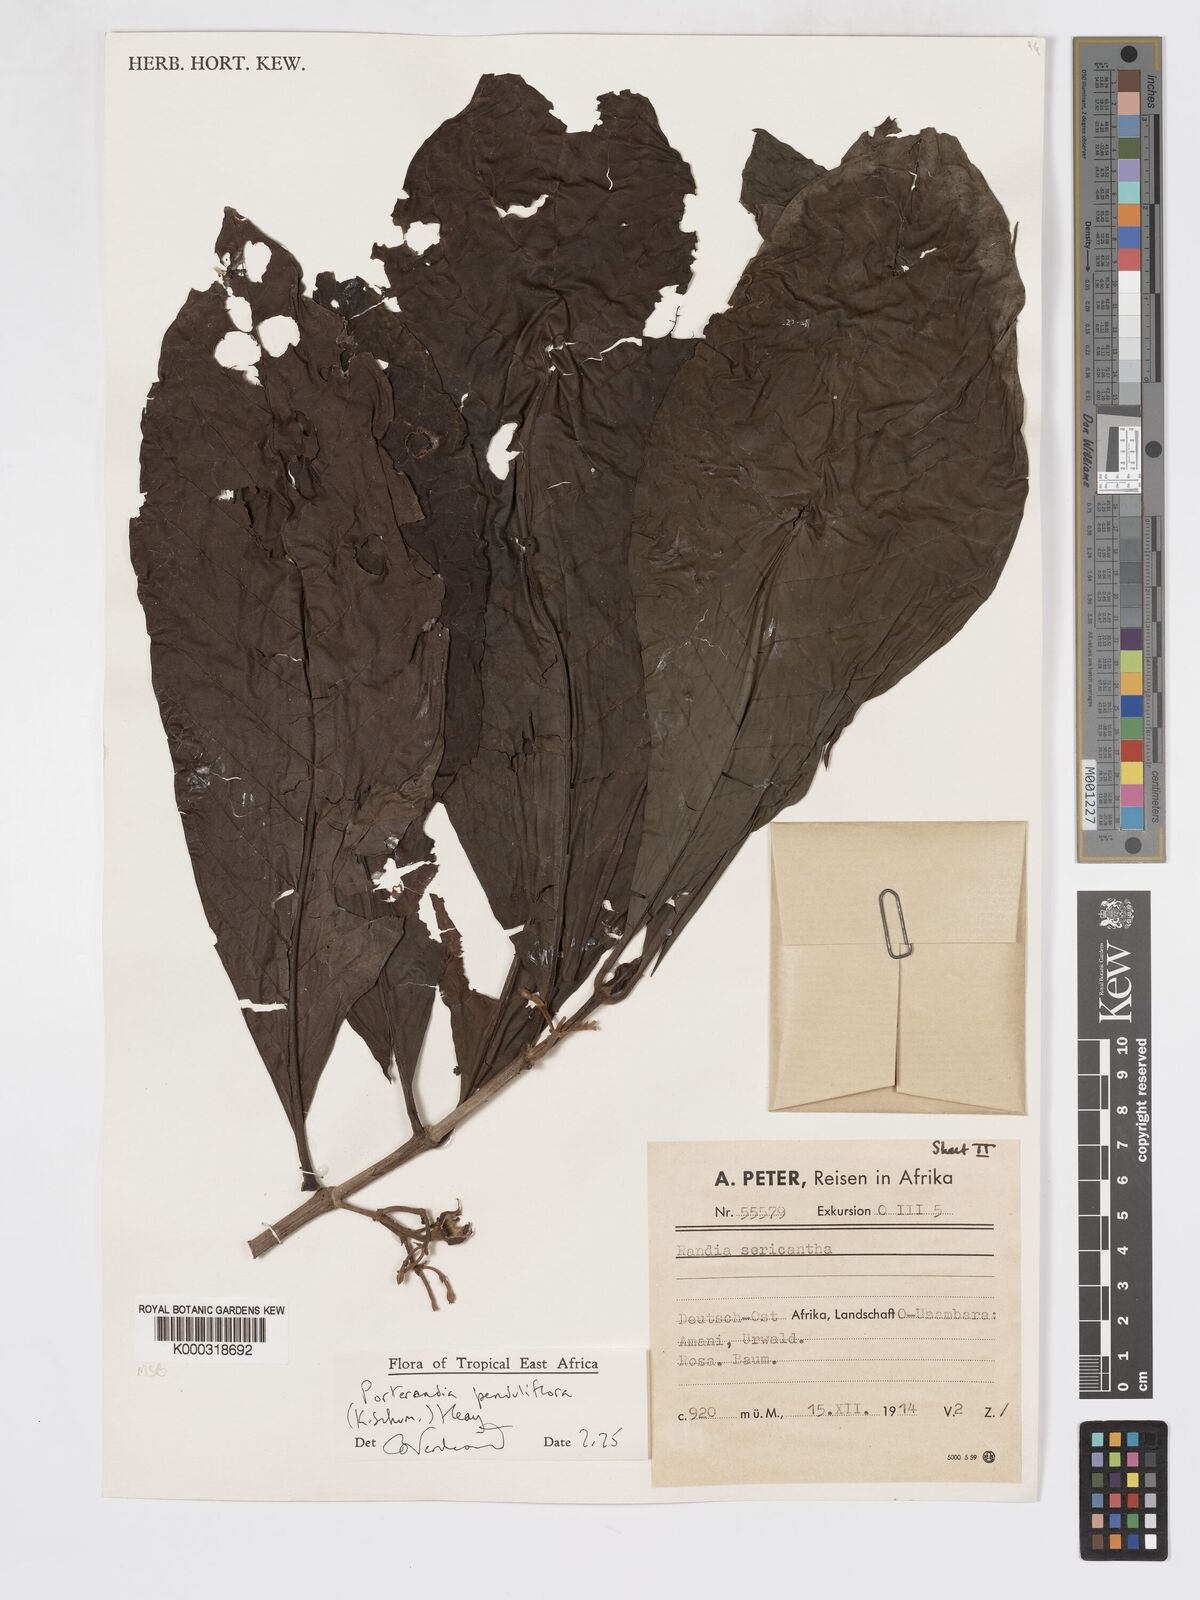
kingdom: Plantae
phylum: Tracheophyta
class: Magnoliopsida
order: Gentianales
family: Rubiaceae
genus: Aoranthe
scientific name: Aoranthe penduliflora
